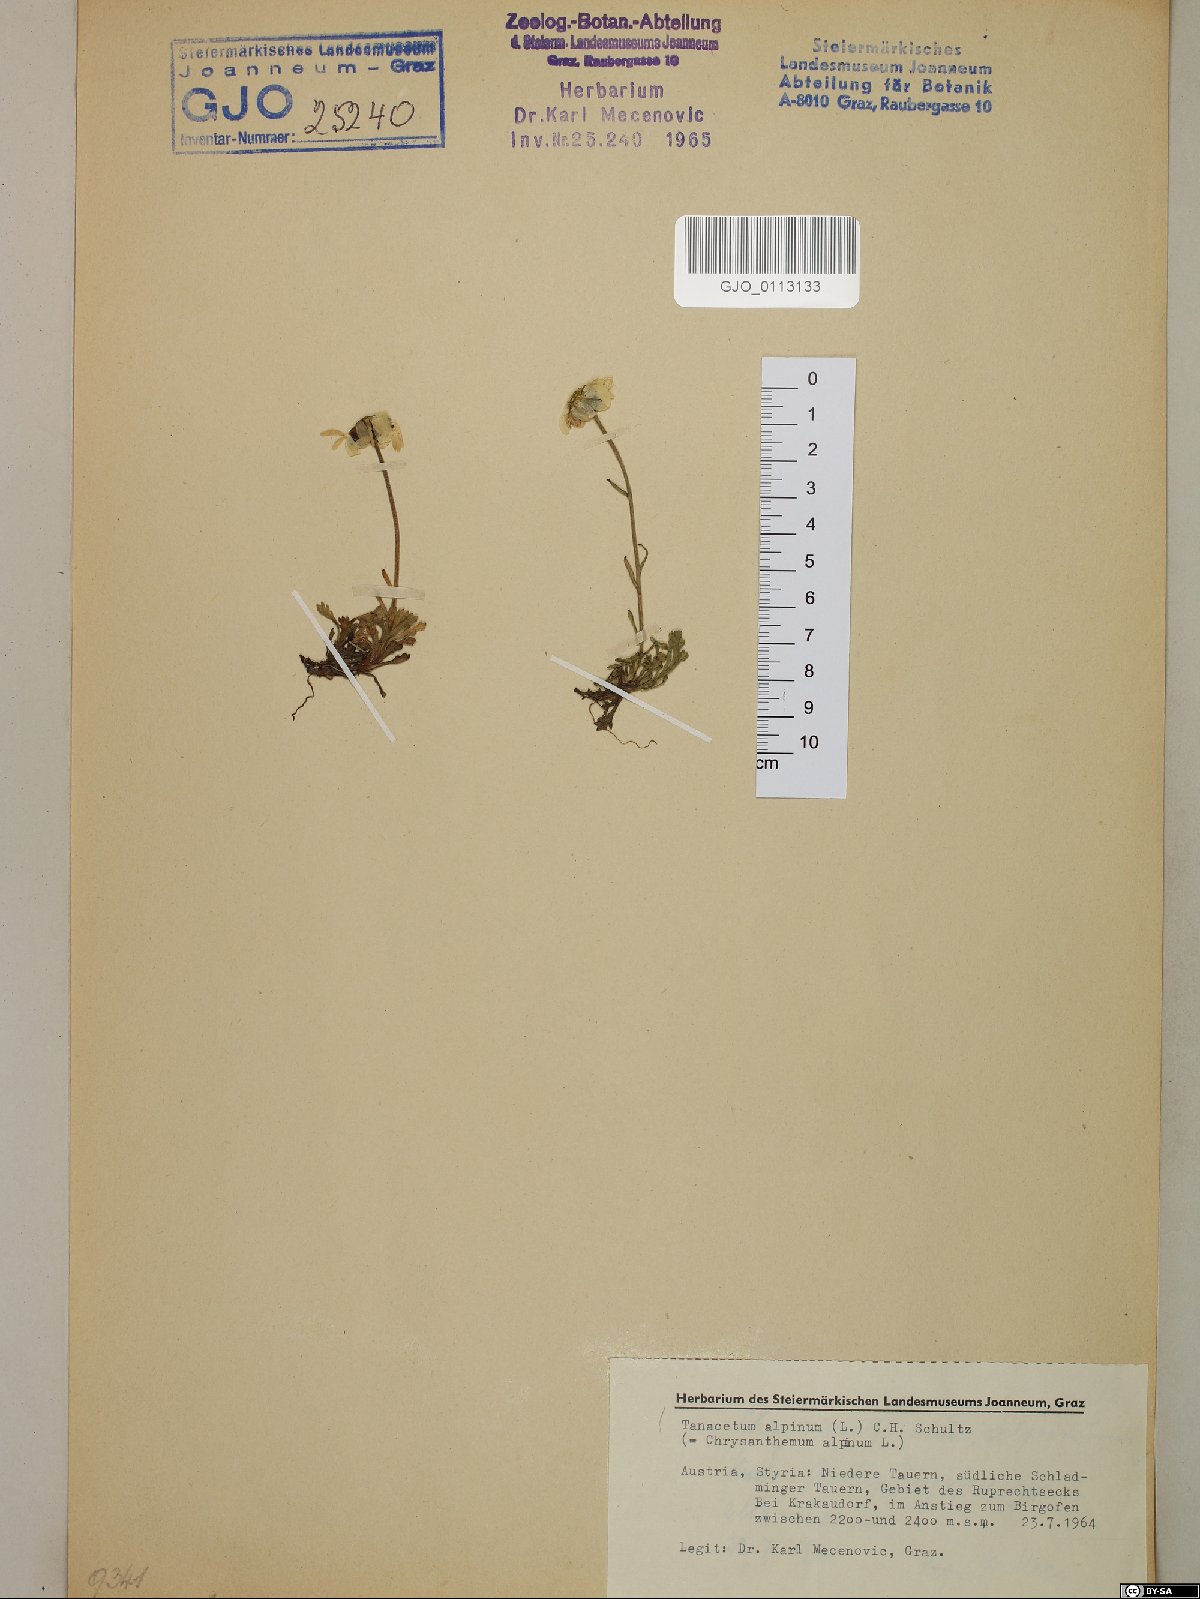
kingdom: Plantae
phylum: Tracheophyta
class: Magnoliopsida
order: Asterales
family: Asteraceae
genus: Leucanthemopsis
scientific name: Leucanthemopsis alpina
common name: Alpine moon daisy
